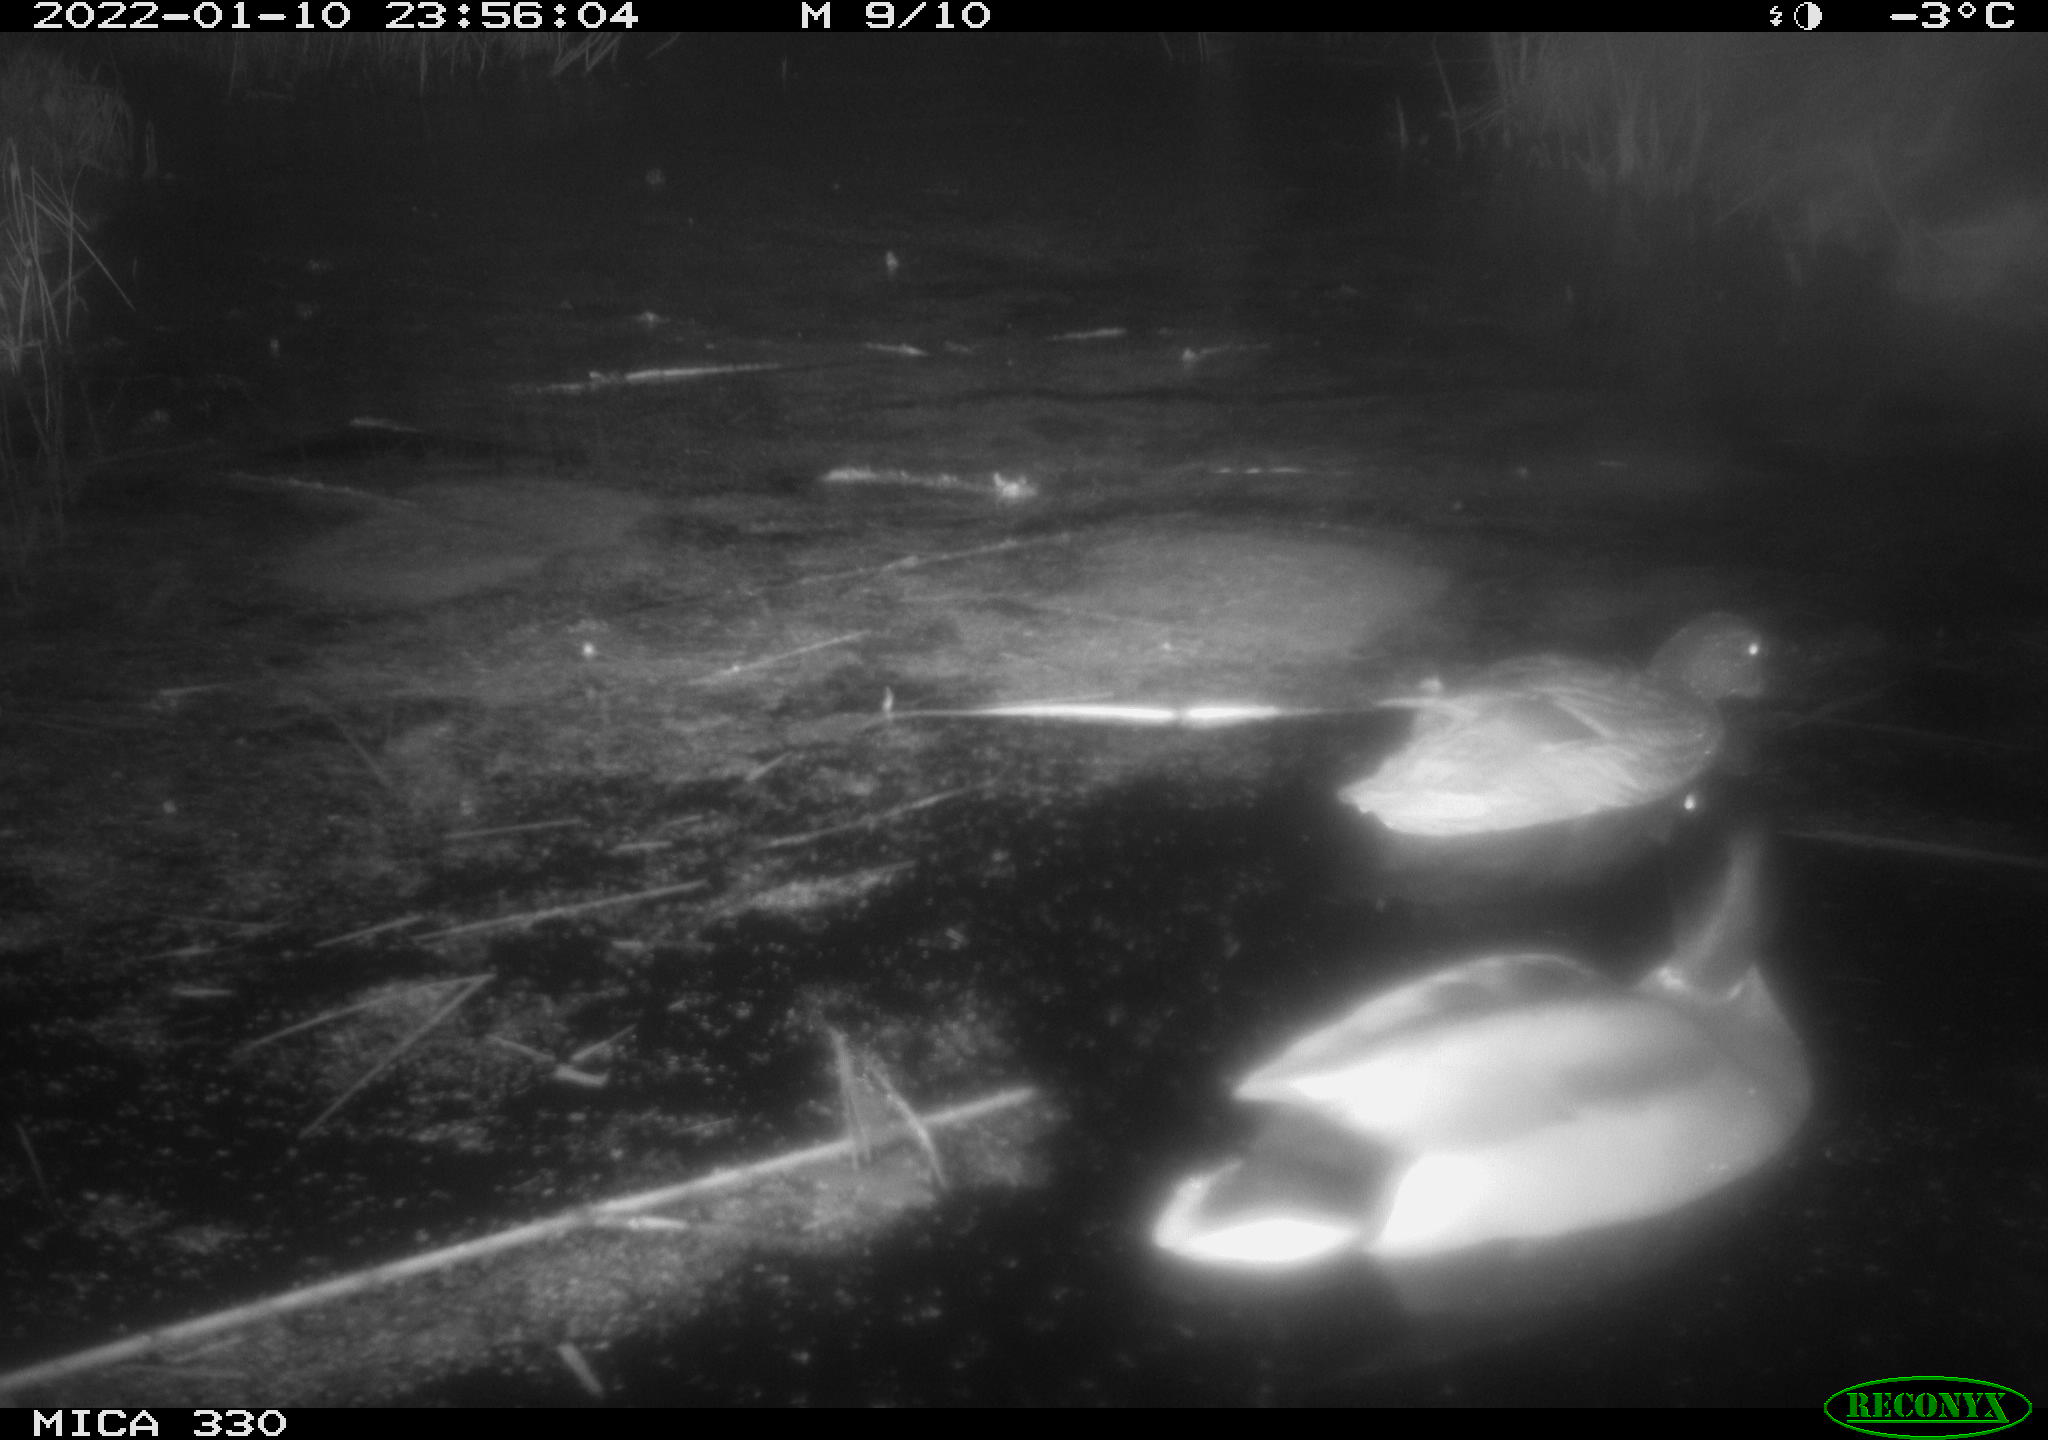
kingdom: Animalia
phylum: Chordata
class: Aves
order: Anseriformes
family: Anatidae
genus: Anas
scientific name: Anas platyrhynchos
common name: Mallard
